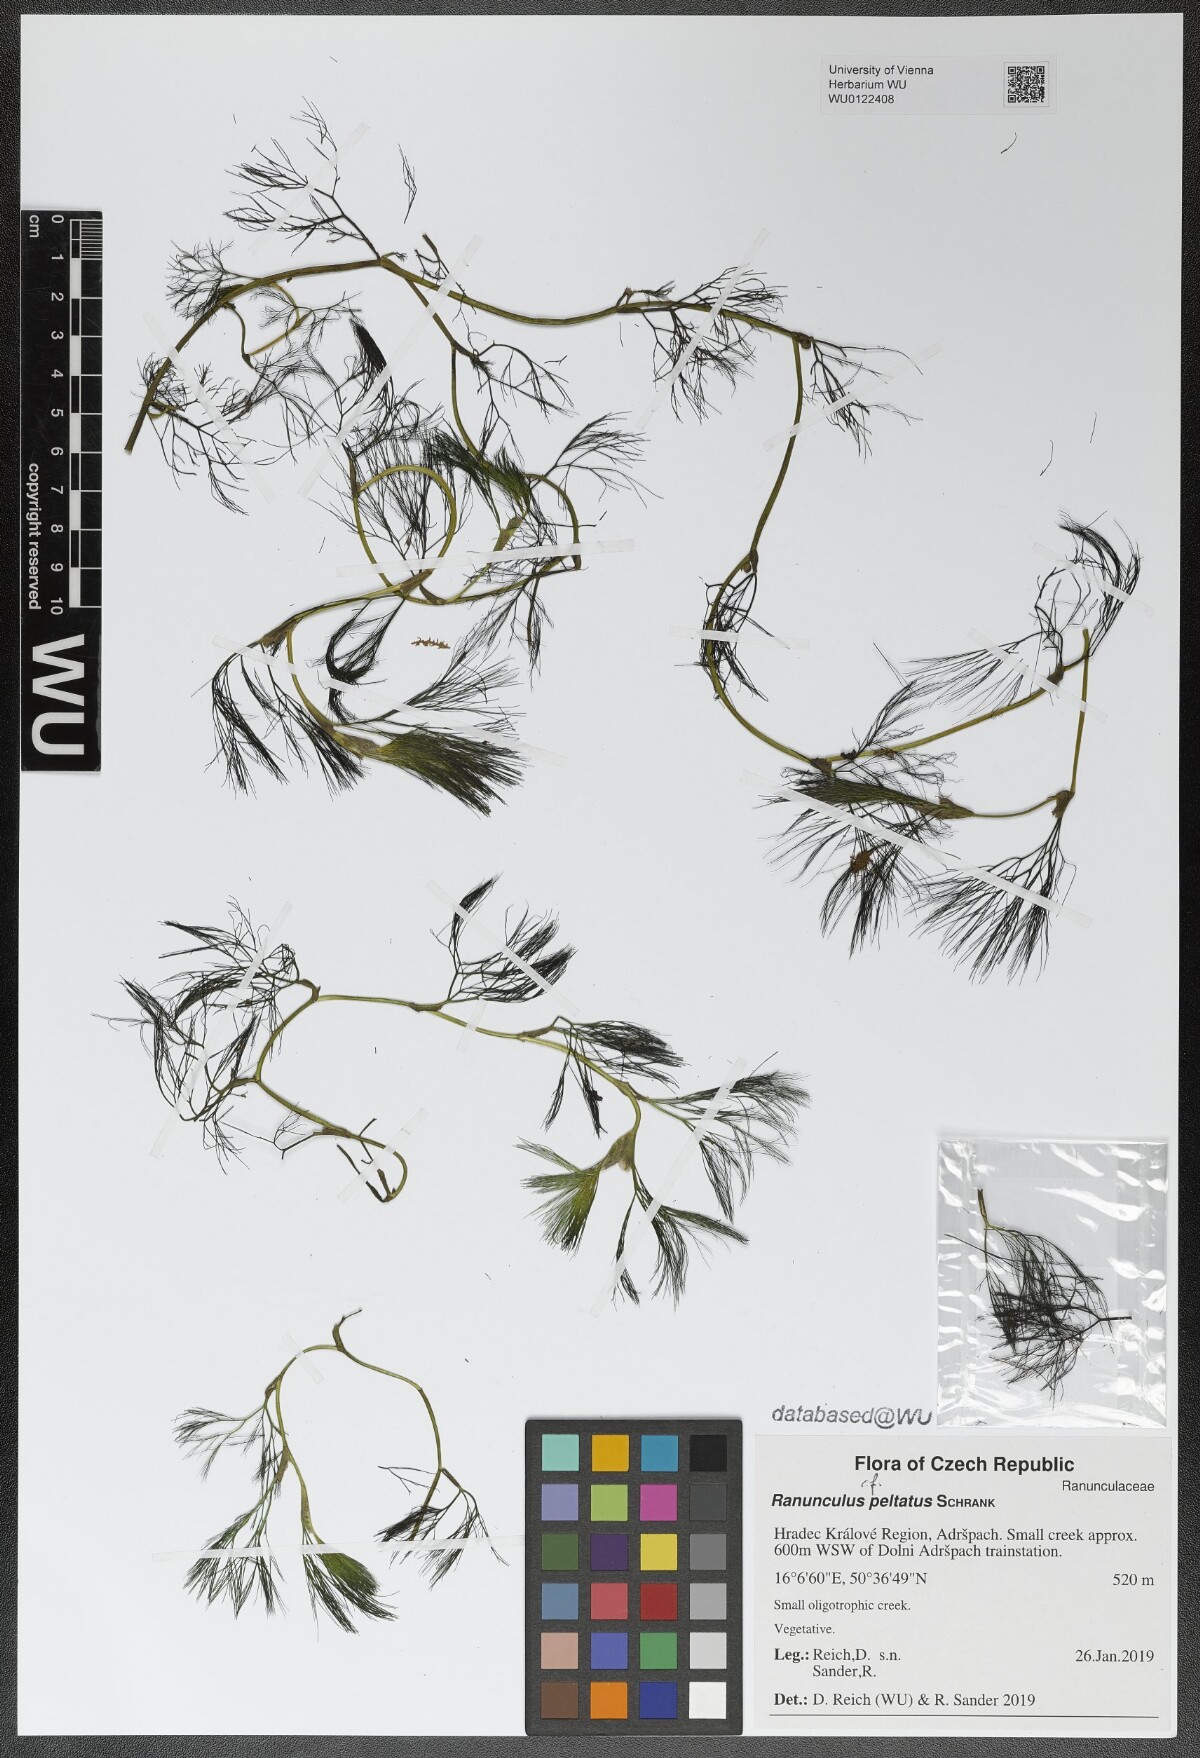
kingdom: Plantae
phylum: Tracheophyta
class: Magnoliopsida
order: Ranunculales
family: Ranunculaceae
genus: Ranunculus
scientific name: Ranunculus peltatus
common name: Pond water-crowfoot
